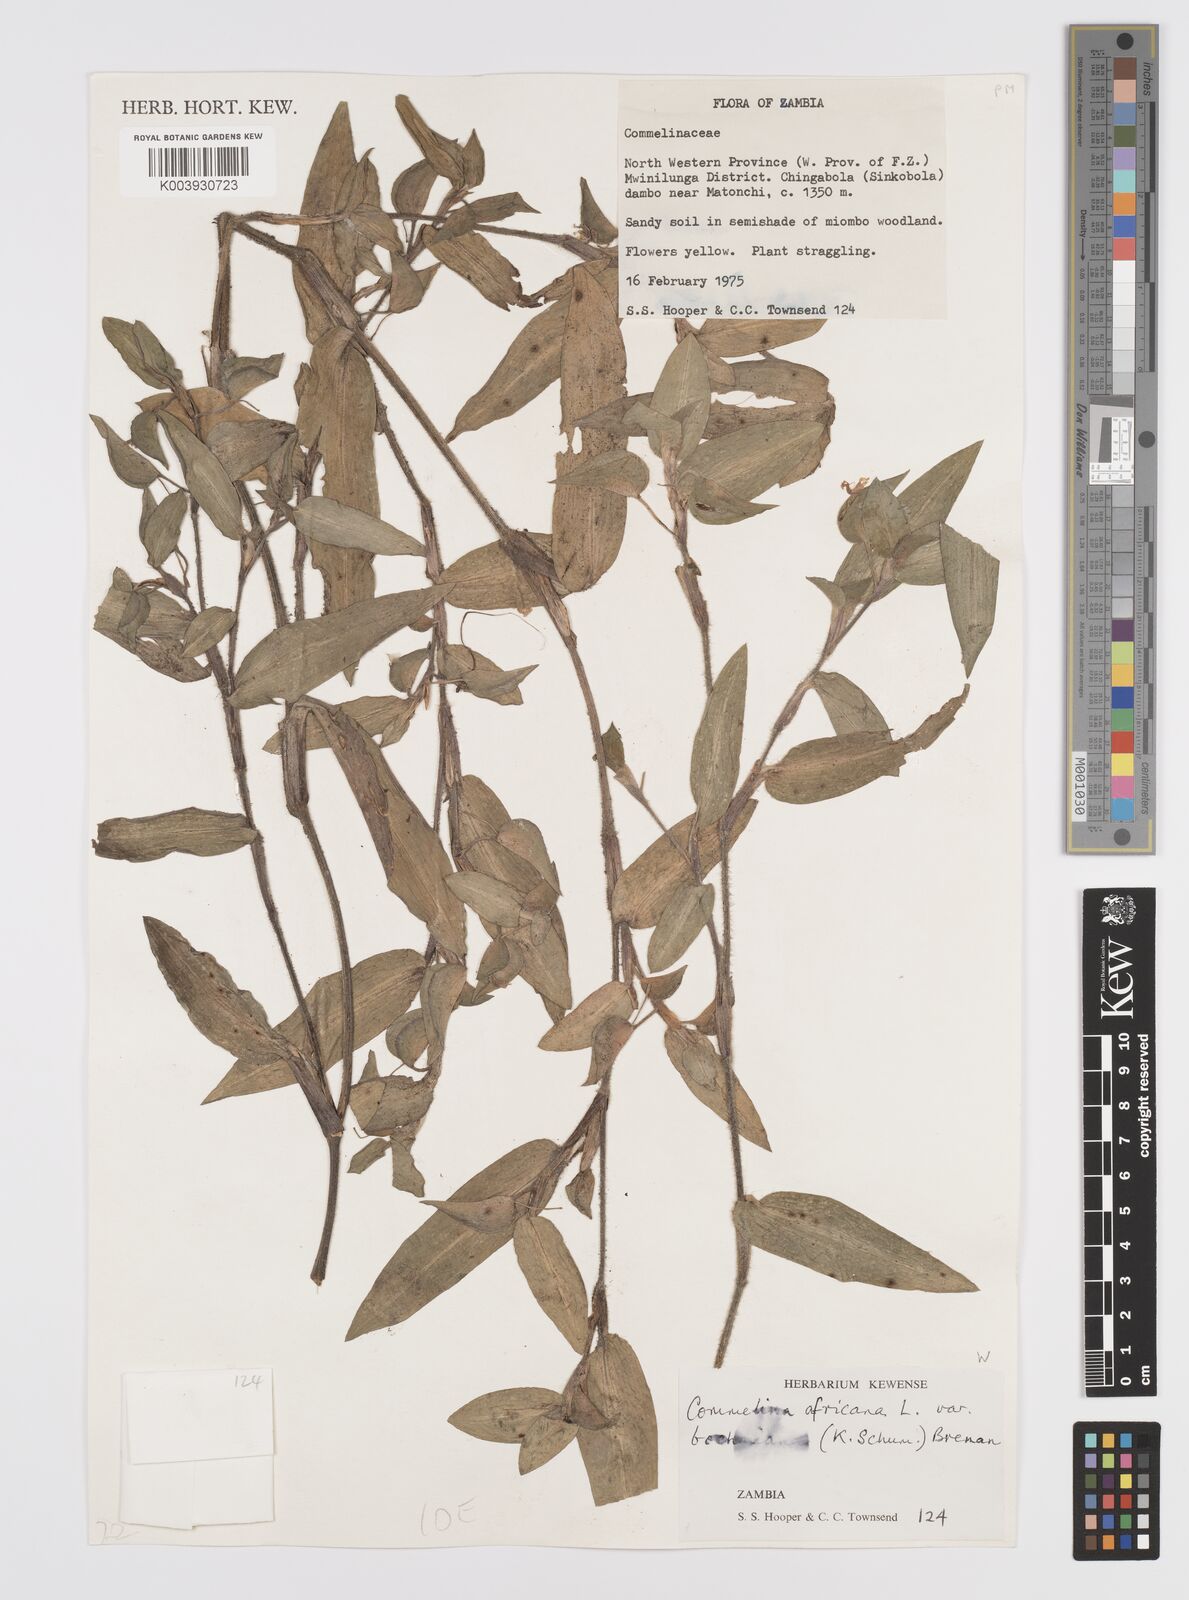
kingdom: Plantae
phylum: Tracheophyta
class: Liliopsida
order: Commelinales
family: Commelinaceae
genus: Commelina
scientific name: Commelina africana
